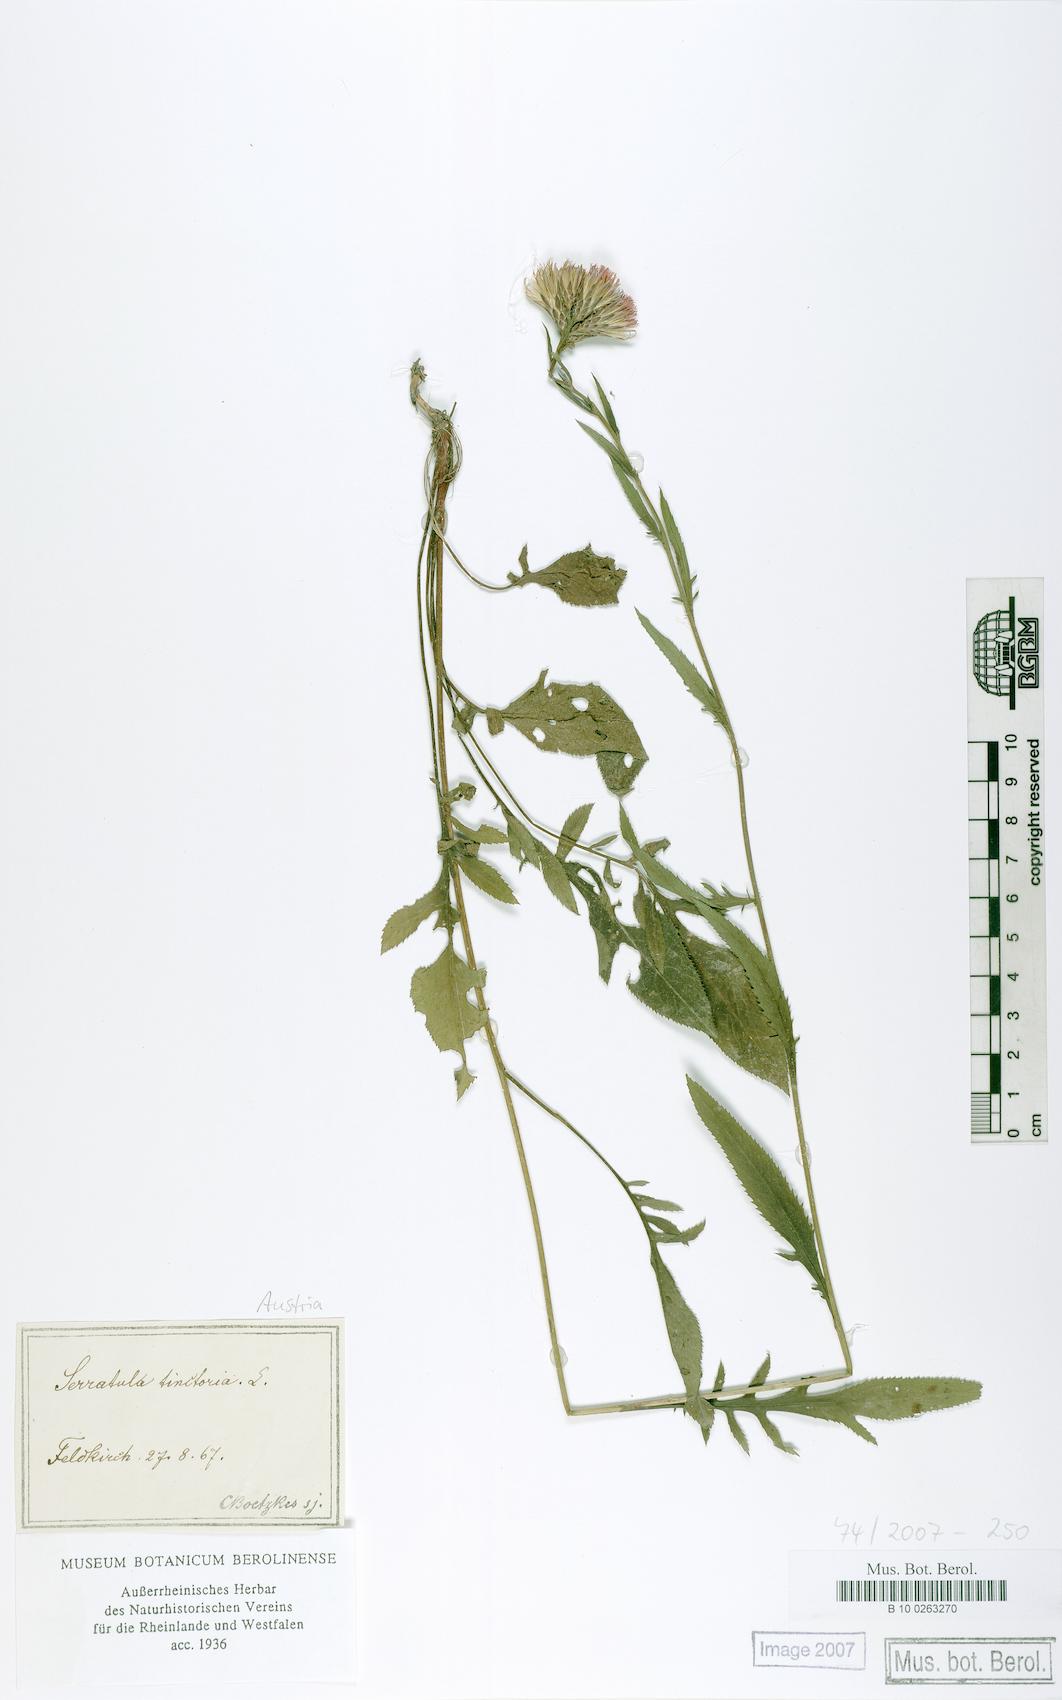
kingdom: Plantae
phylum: Tracheophyta
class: Magnoliopsida
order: Asterales
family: Asteraceae
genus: Serratula
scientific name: Serratula tinctoria
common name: Saw-wort
